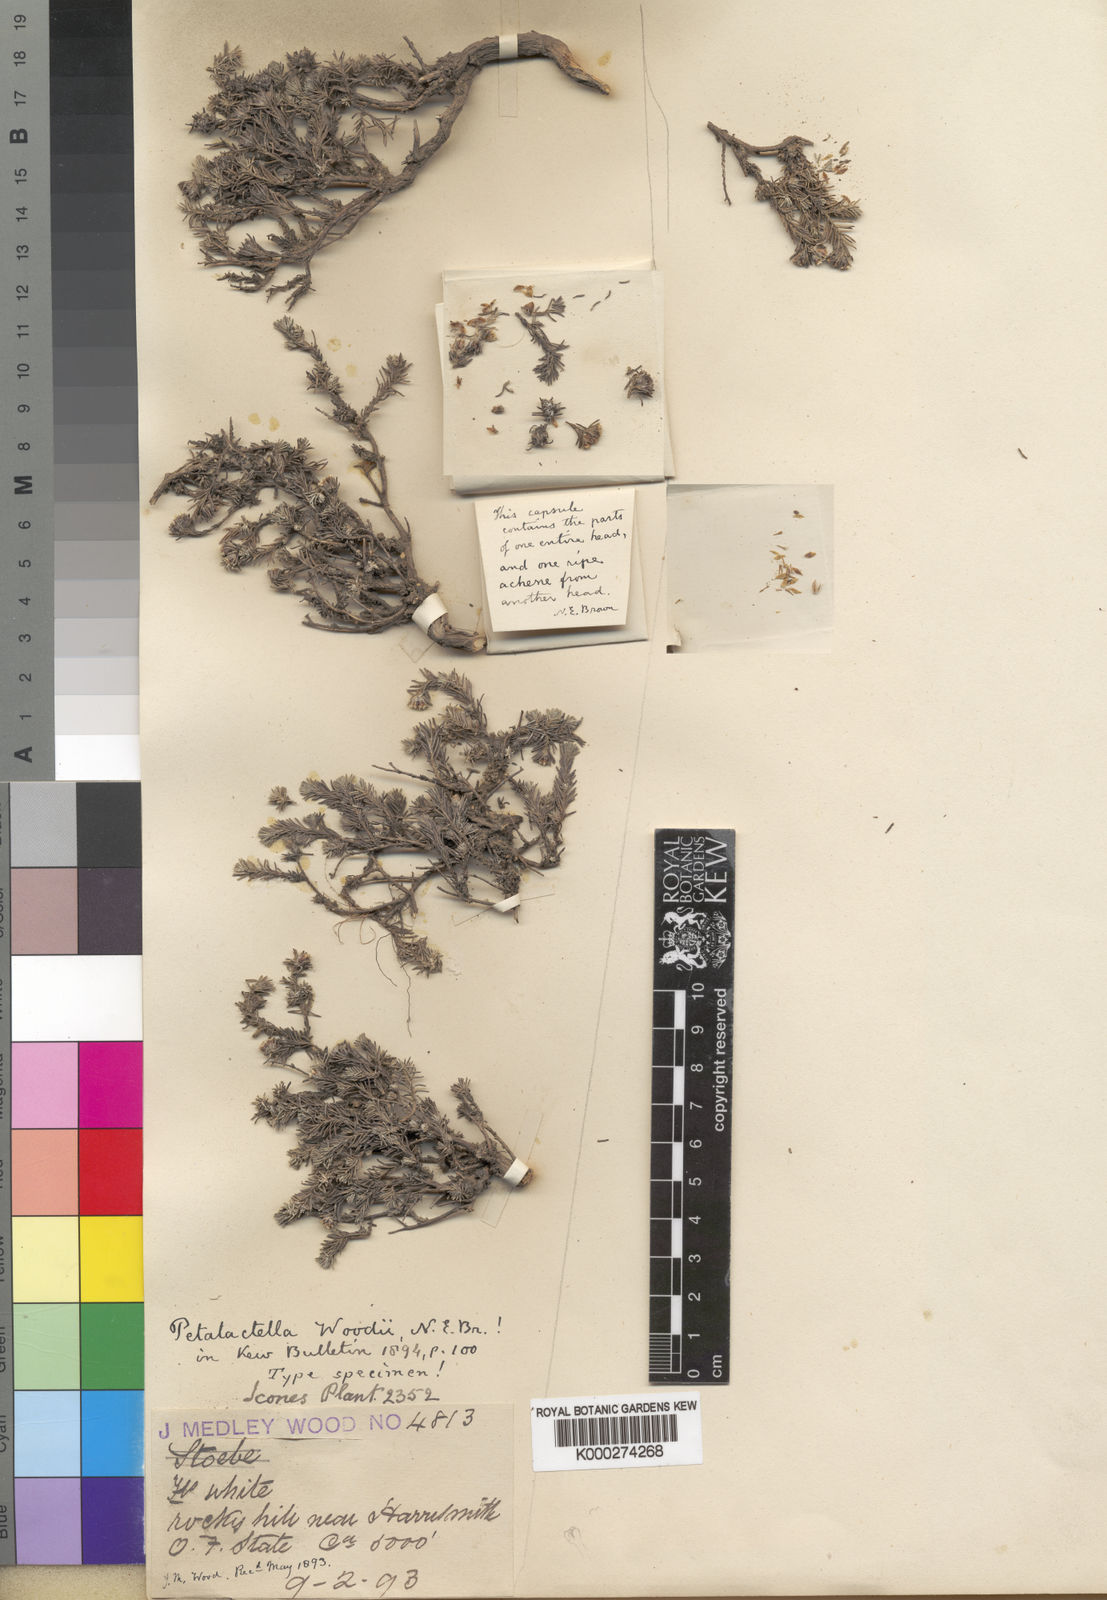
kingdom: Plantae
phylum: Tracheophyta
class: Magnoliopsida
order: Asterales
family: Asteraceae
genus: Ifloga
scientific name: Ifloga decumbens
